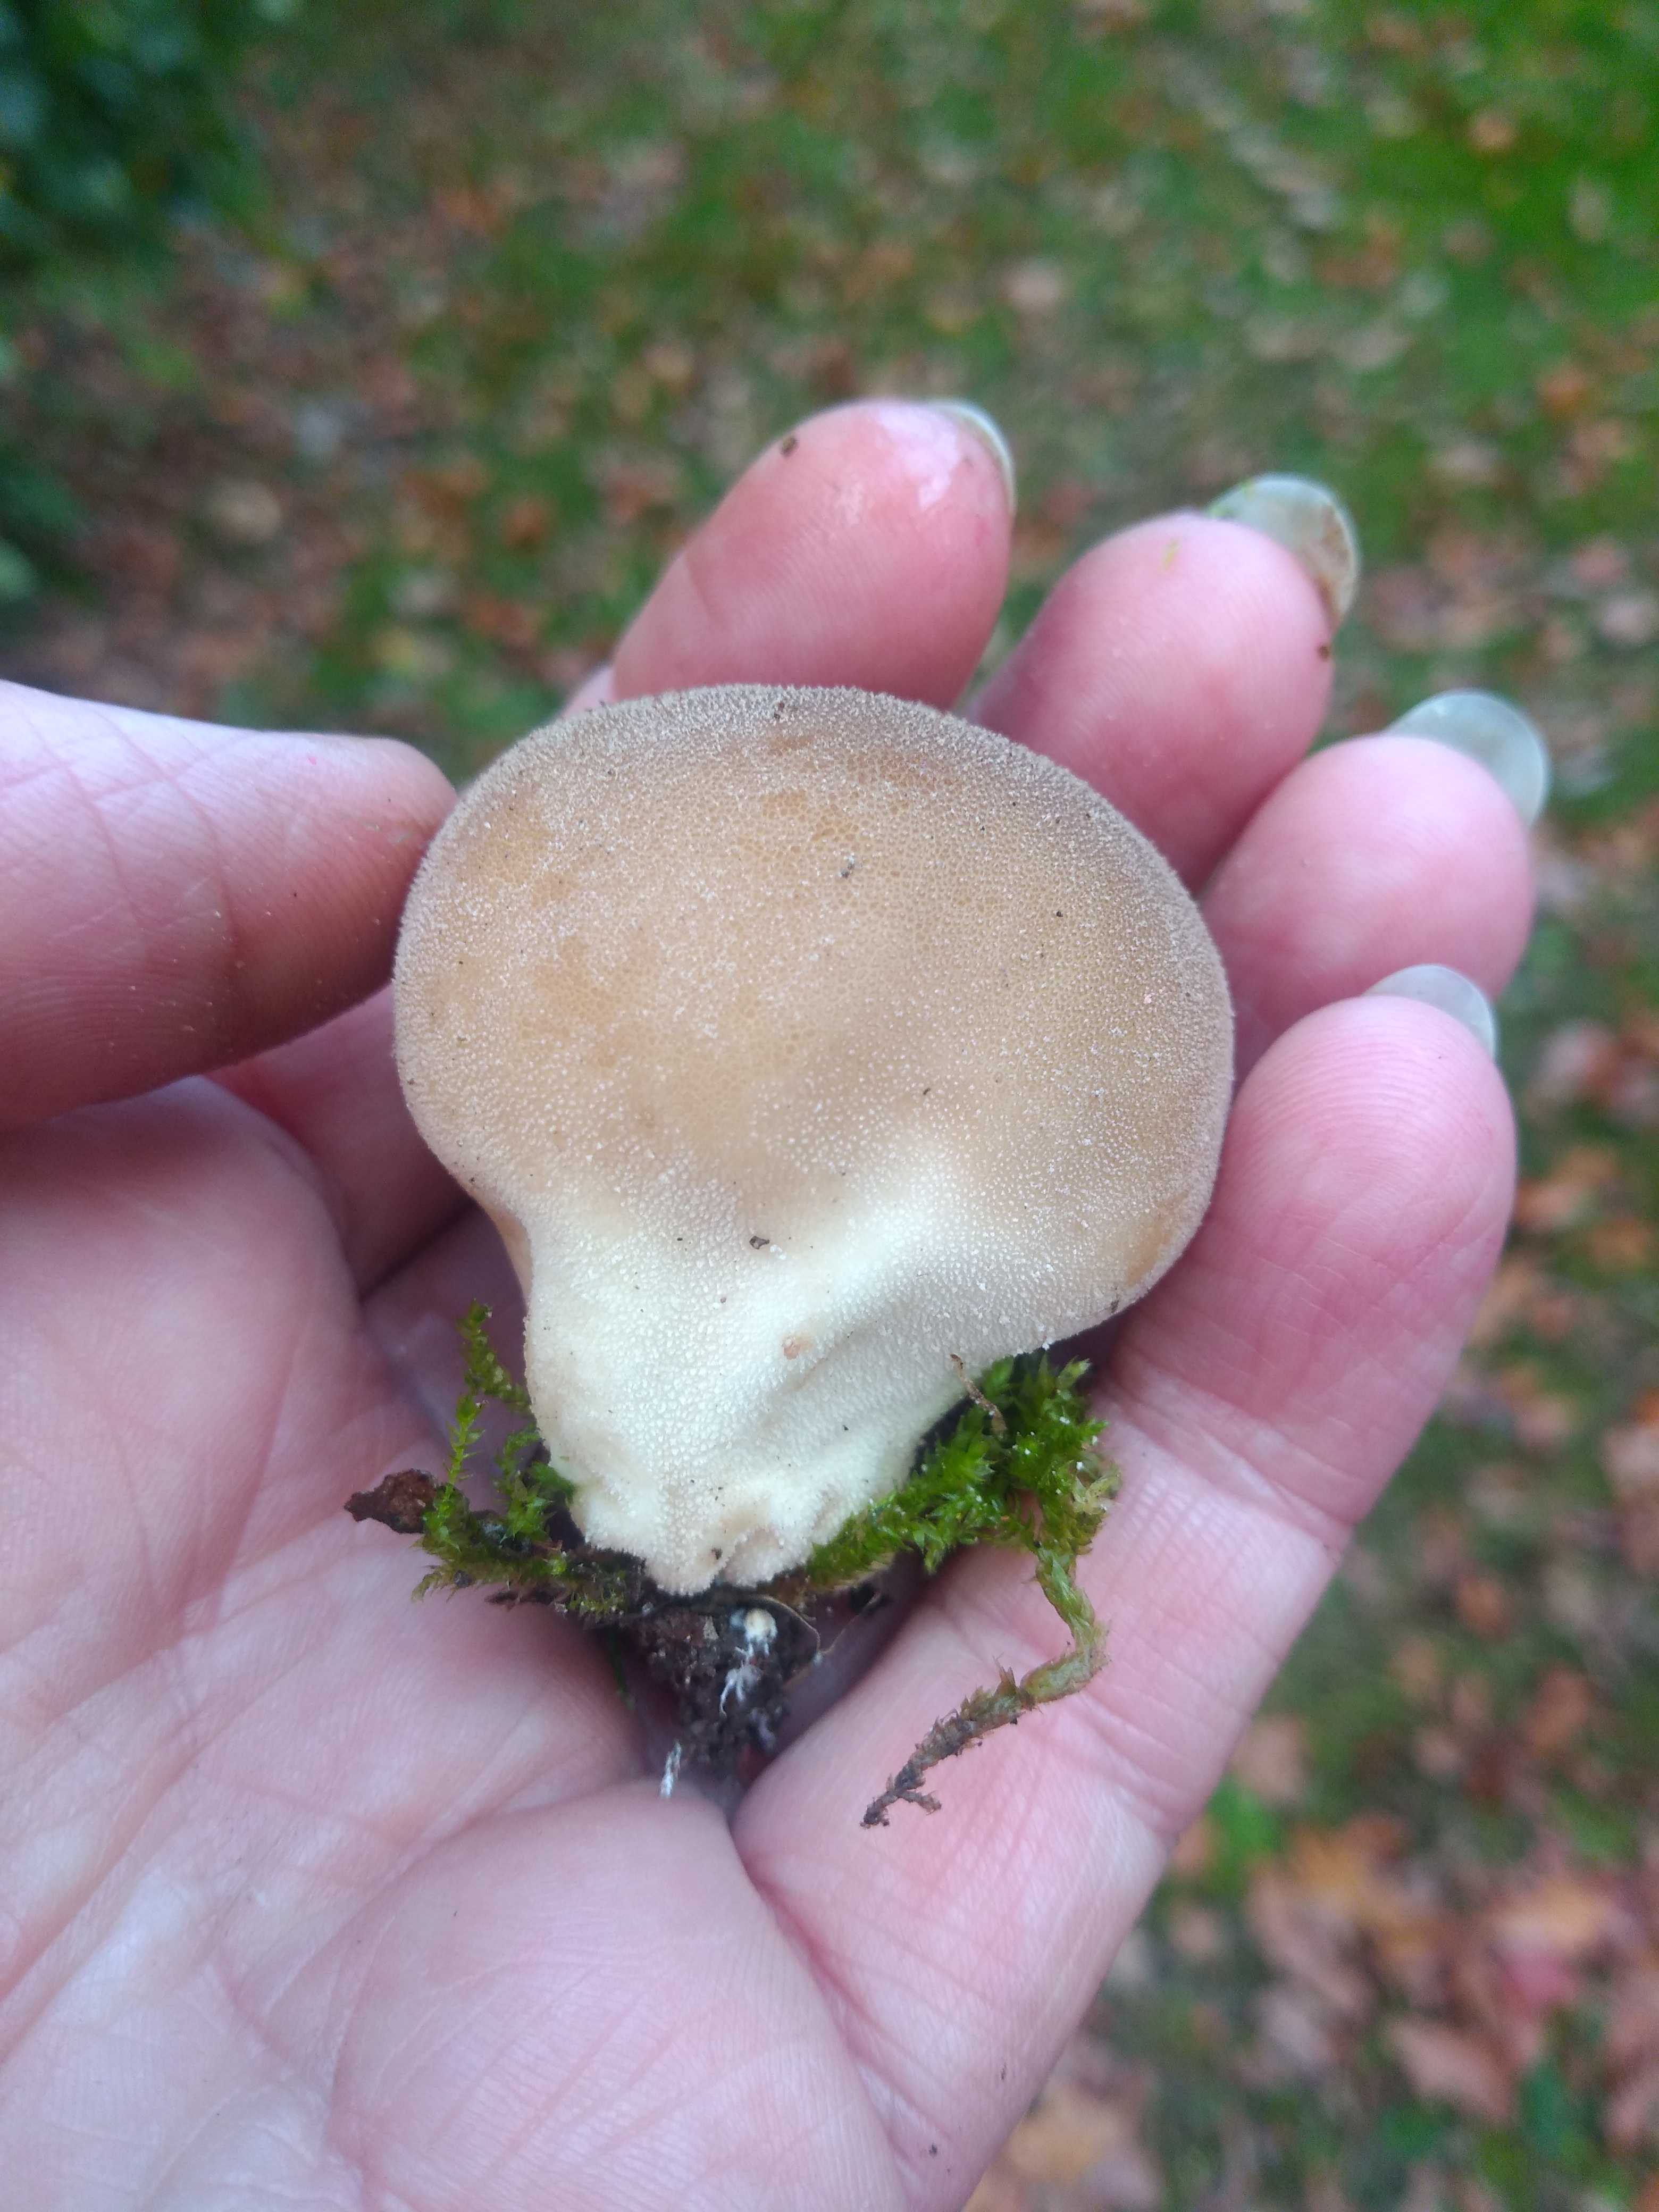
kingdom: Fungi
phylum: Basidiomycota
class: Agaricomycetes
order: Agaricales
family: Lycoperdaceae
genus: Apioperdon
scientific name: Apioperdon pyriforme
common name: pære-støvbold
